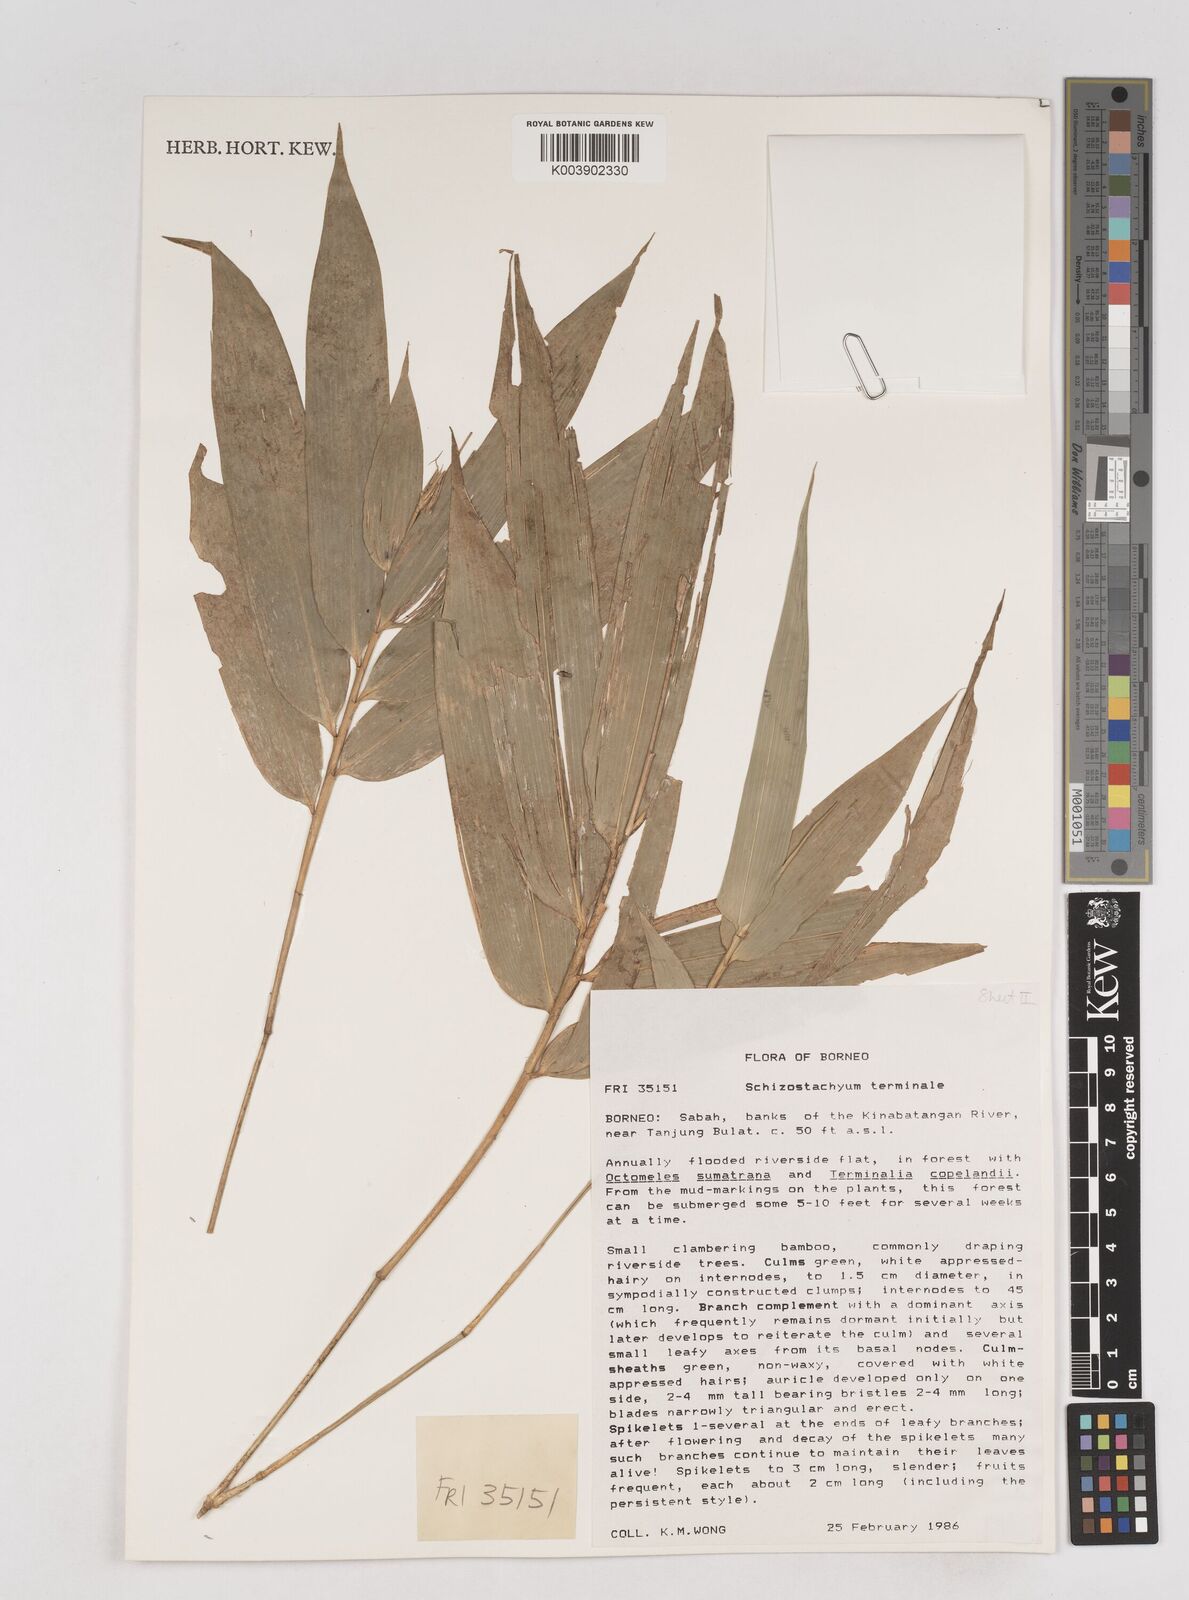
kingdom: Plantae
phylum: Tracheophyta
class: Liliopsida
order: Poales
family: Poaceae
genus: Schizostachyum
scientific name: Schizostachyum terminale
